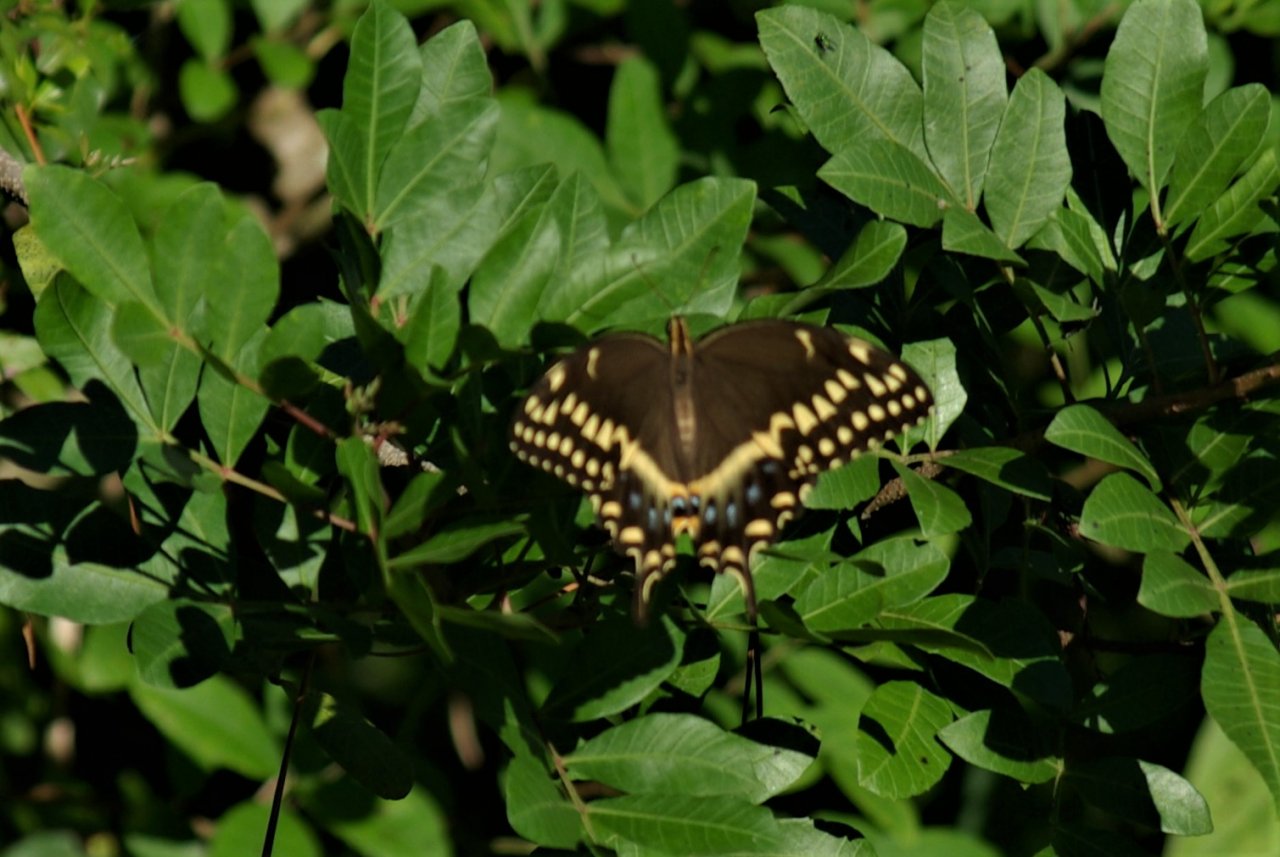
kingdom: Animalia
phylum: Arthropoda
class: Insecta
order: Lepidoptera
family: Papilionidae
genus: Pterourus
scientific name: Pterourus palamedes
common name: Palamedes Swallowtail
